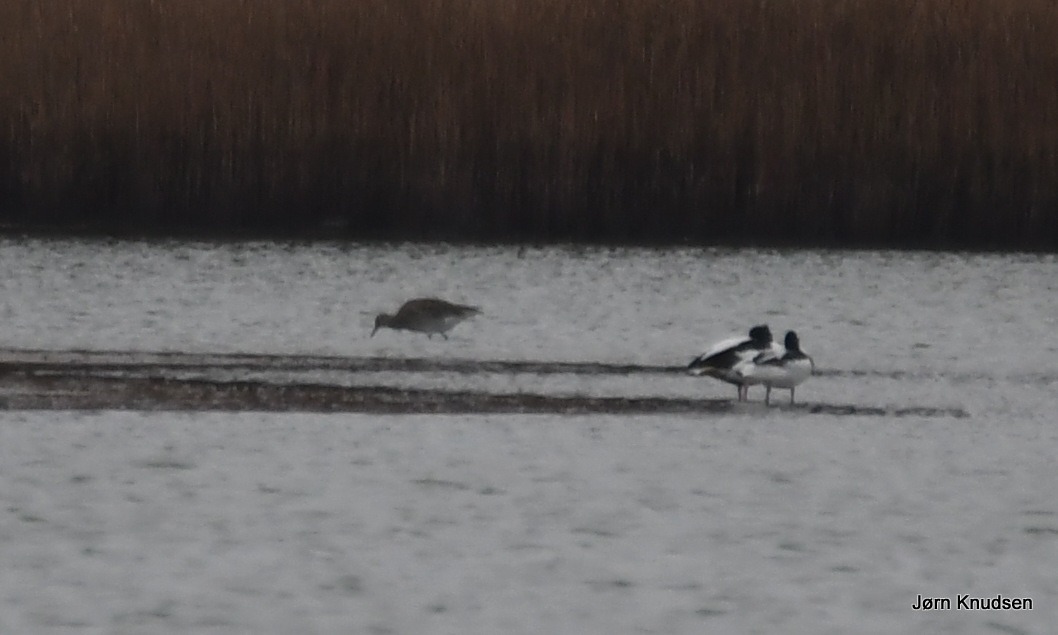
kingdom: Animalia
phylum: Chordata
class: Aves
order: Charadriiformes
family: Scolopacidae
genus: Numenius
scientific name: Numenius arquata
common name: Storspove
